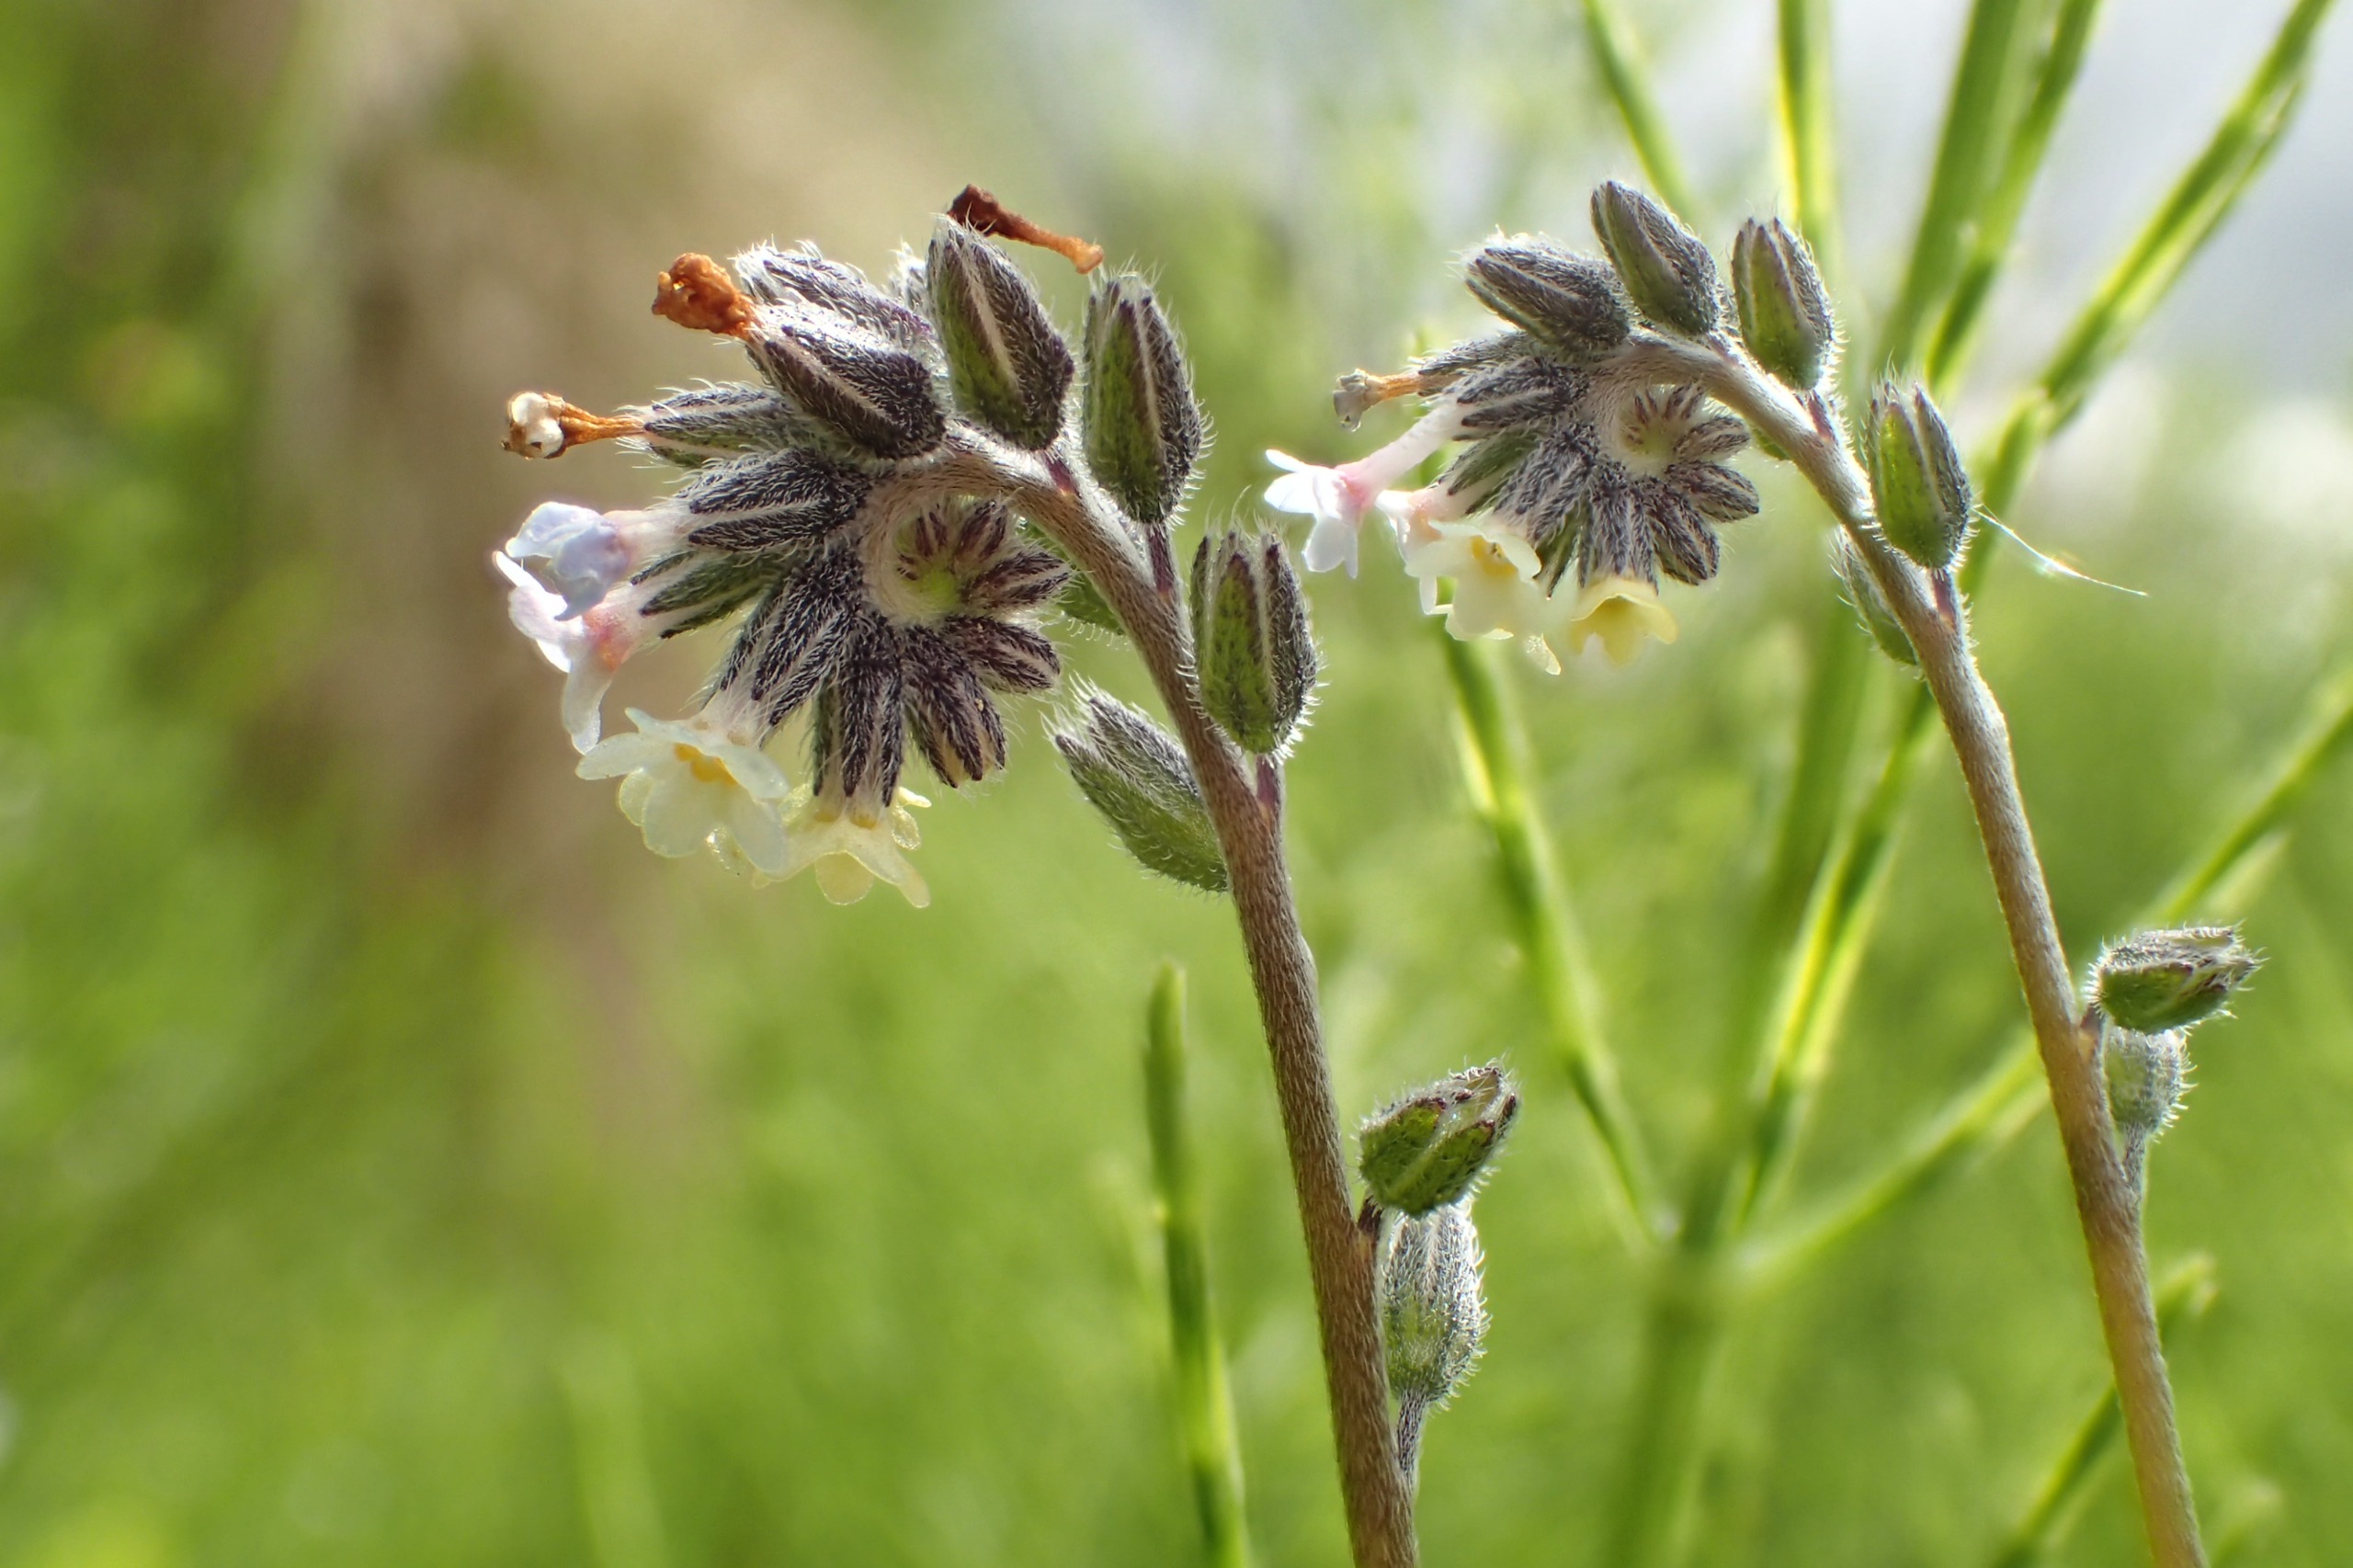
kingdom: Plantae
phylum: Tracheophyta
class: Magnoliopsida
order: Boraginales
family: Boraginaceae
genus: Myosotis
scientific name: Myosotis discolor
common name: Forskelligfarvet forglemmigej
